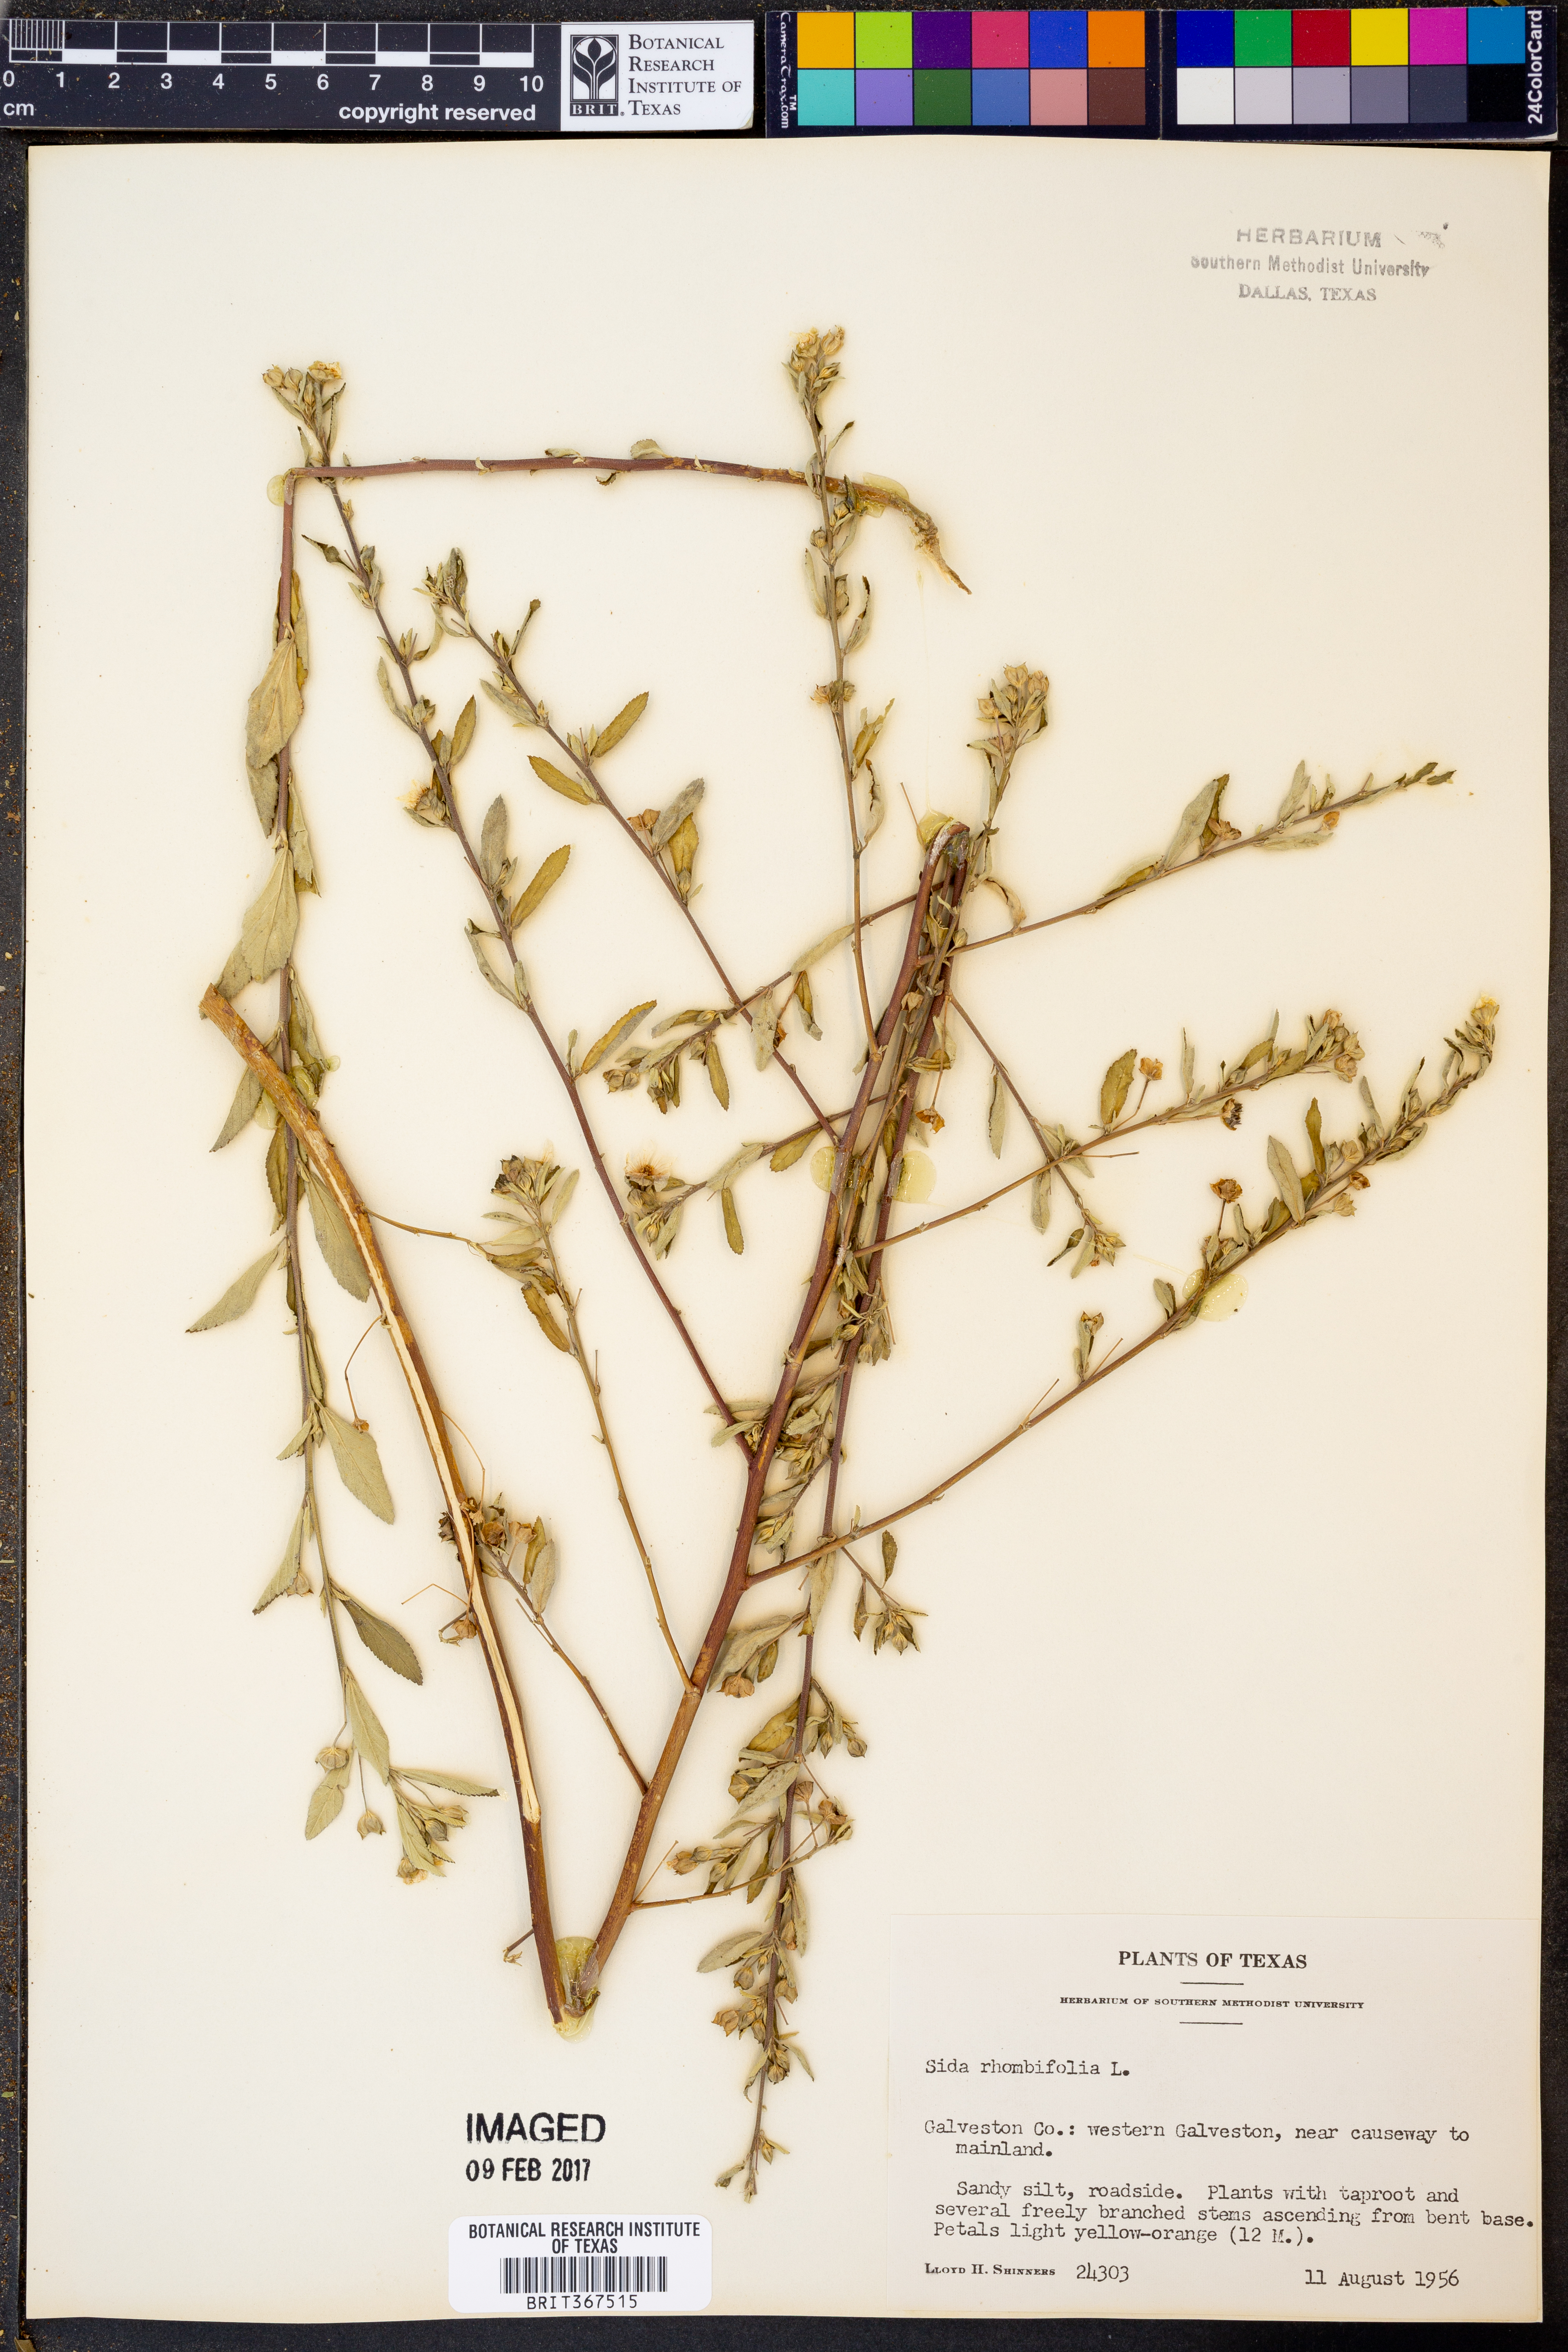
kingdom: Plantae
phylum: Tracheophyta
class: Magnoliopsida
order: Malvales
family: Malvaceae
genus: Sida
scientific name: Sida rhombifolia
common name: Queensland-hemp
